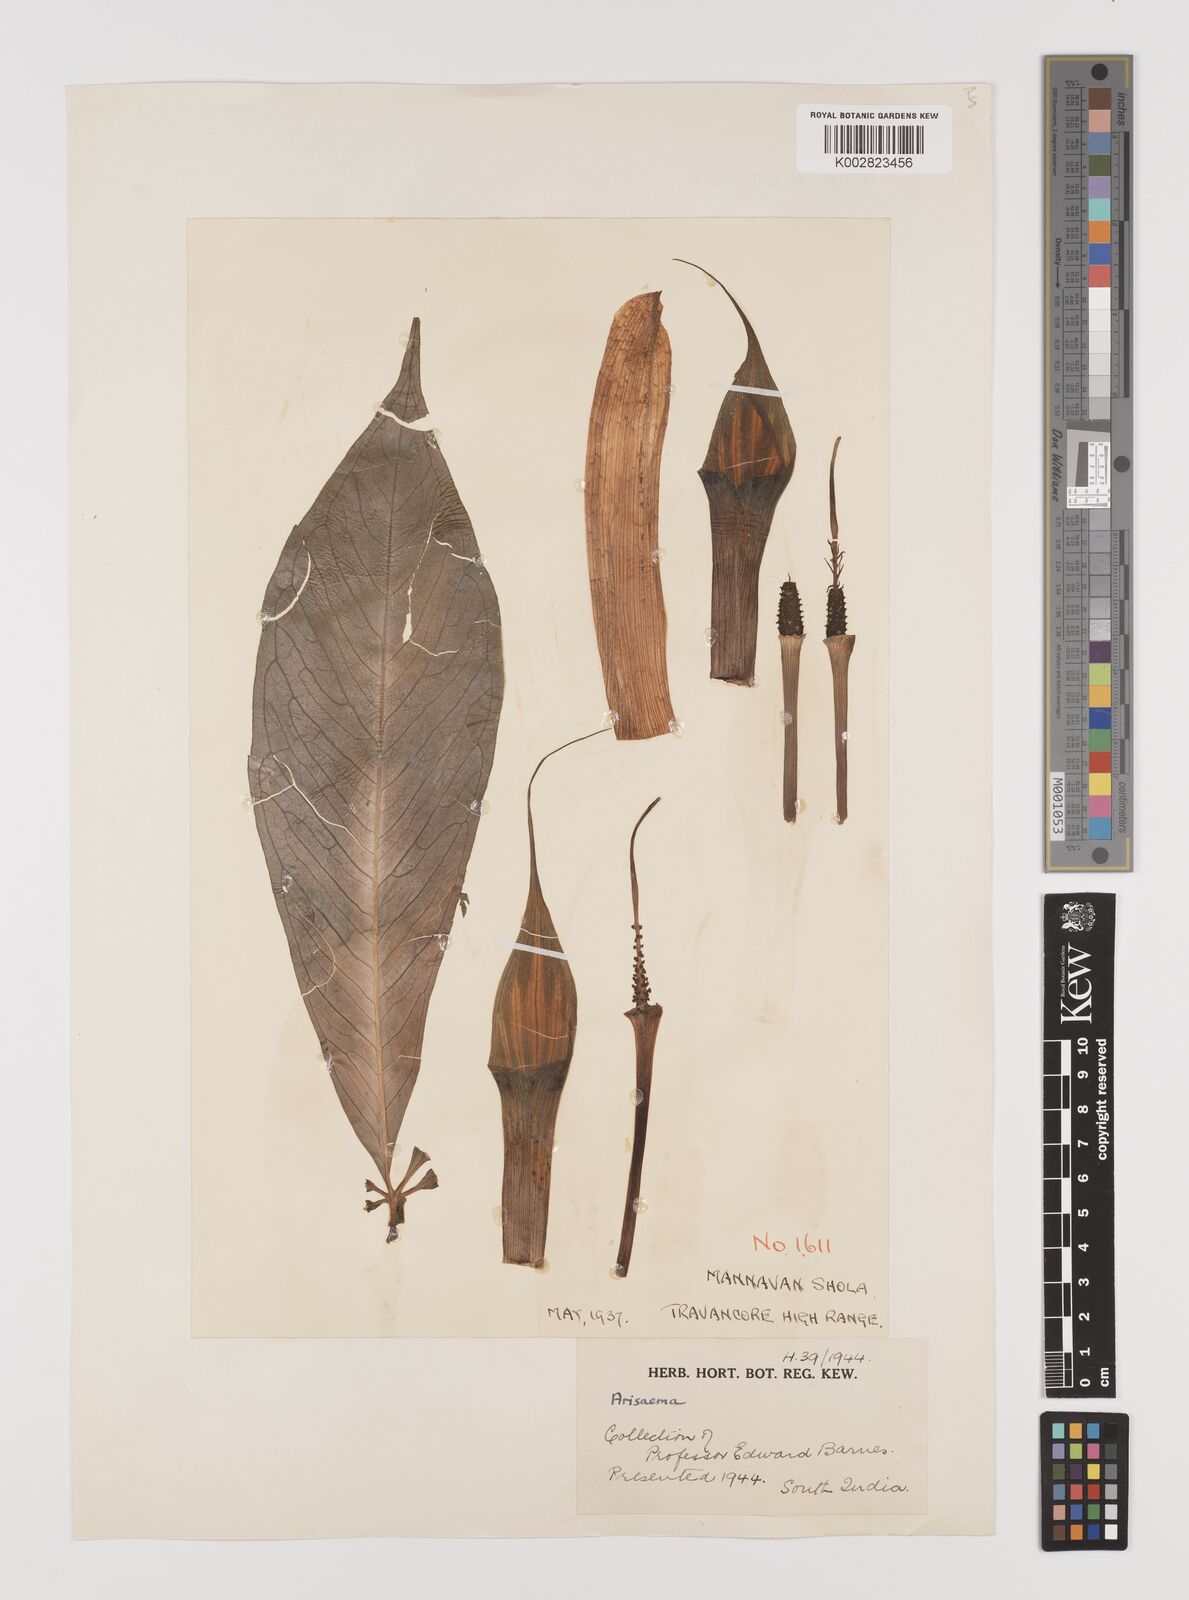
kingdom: Plantae
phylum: Tracheophyta
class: Liliopsida
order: Alismatales
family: Araceae
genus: Arisaema
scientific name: Arisaema
